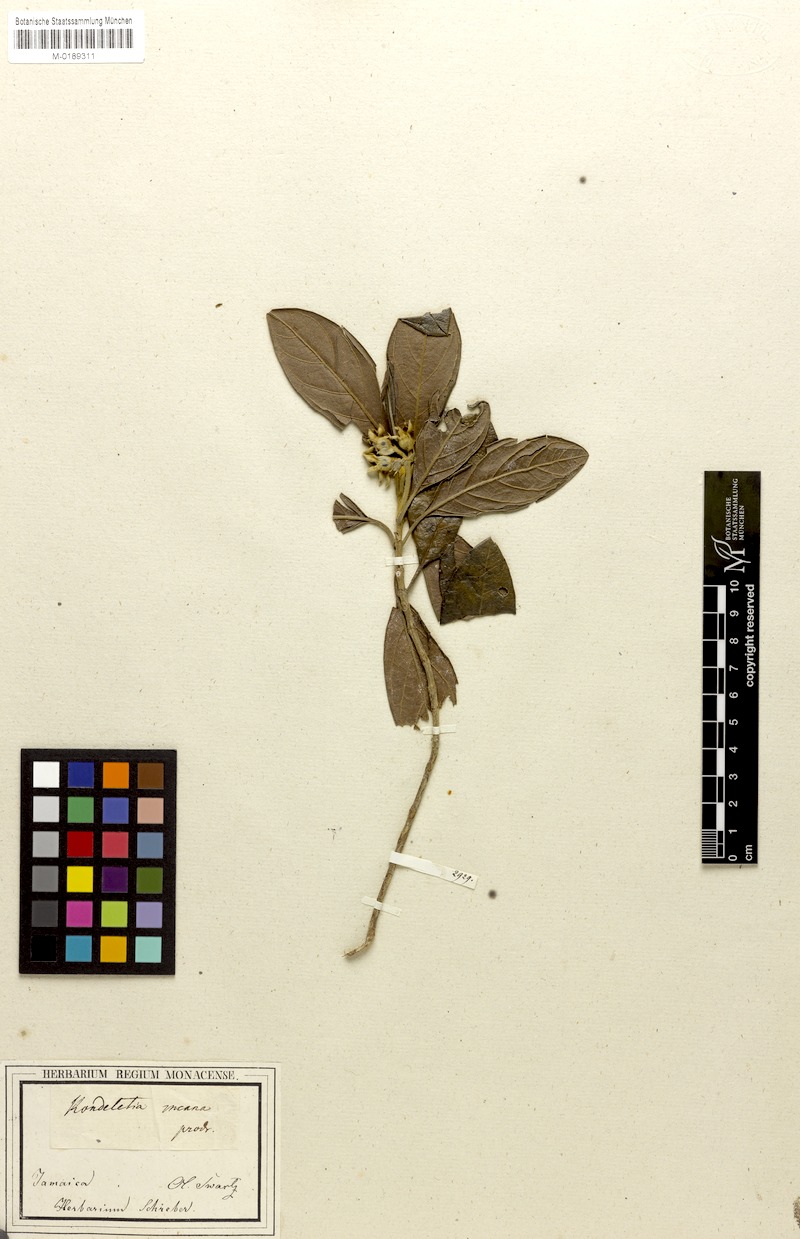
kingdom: Plantae
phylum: Tracheophyta
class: Magnoliopsida
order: Gentianales
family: Rubiaceae
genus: Rondeletia
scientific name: Rondeletia incana
